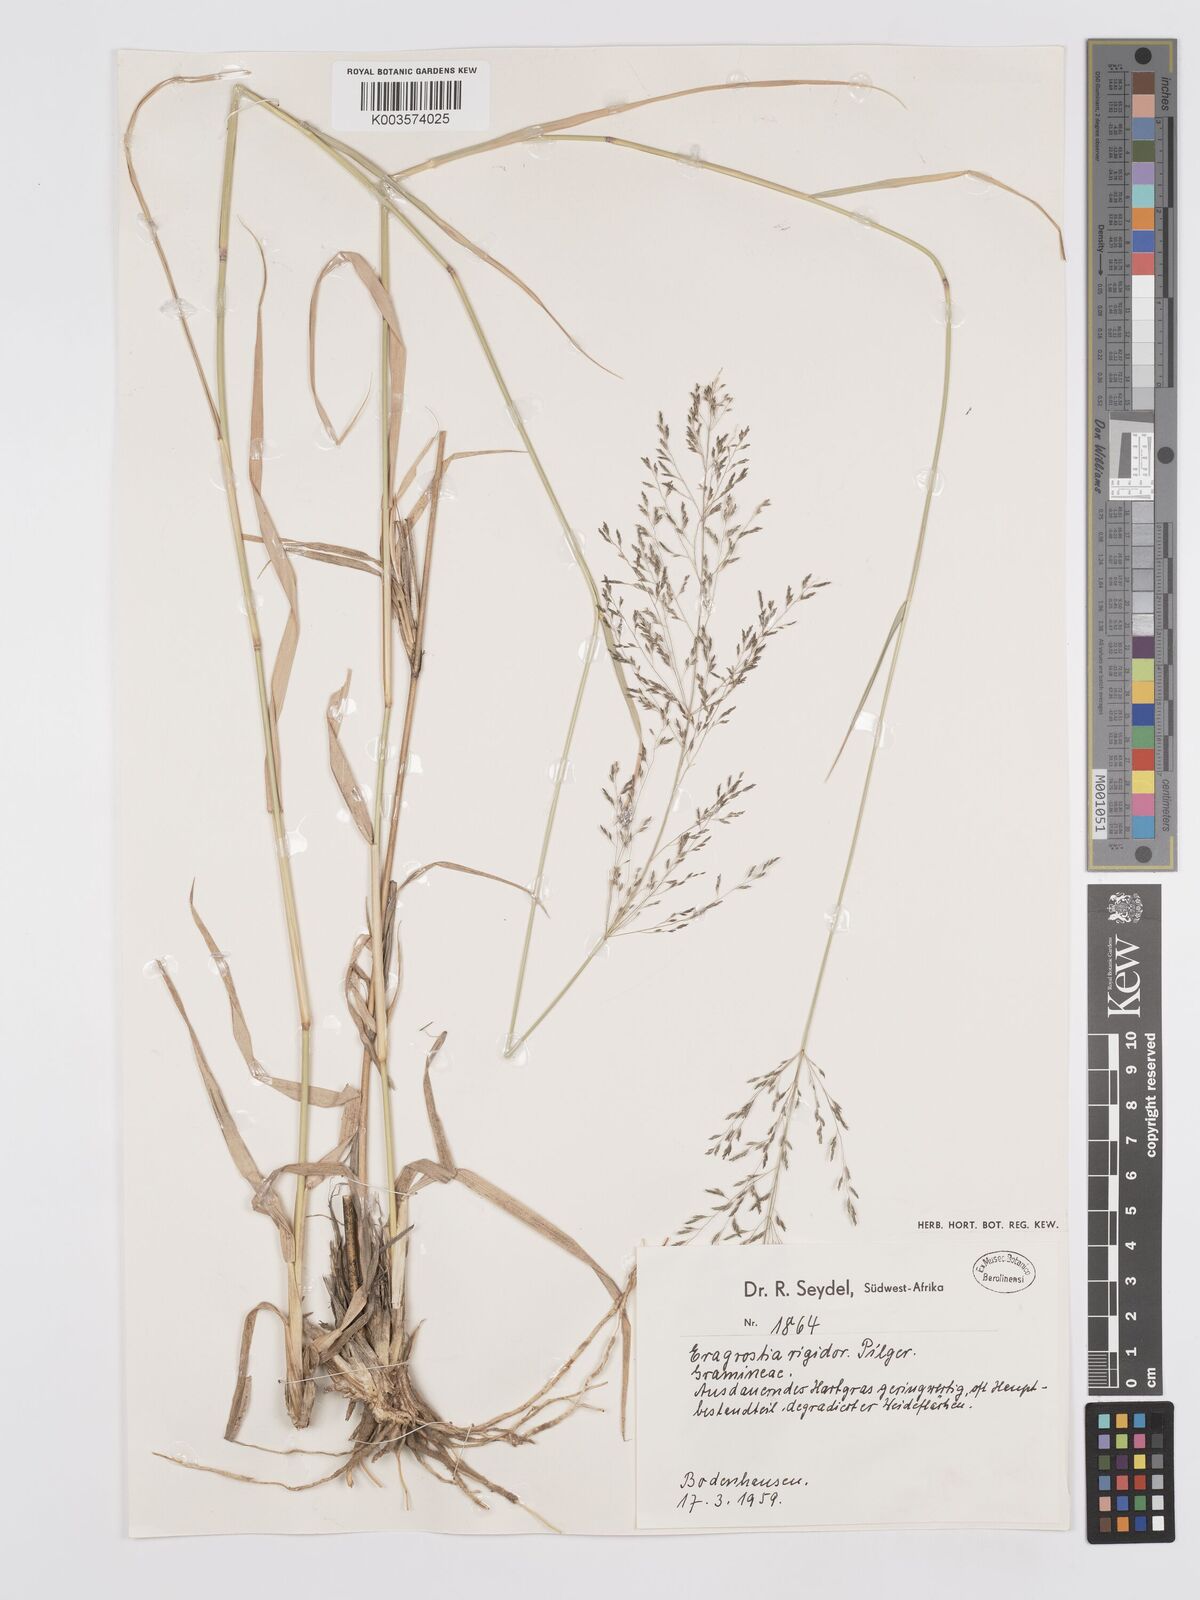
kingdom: Plantae
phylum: Tracheophyta
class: Liliopsida
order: Poales
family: Poaceae
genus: Eragrostis
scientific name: Eragrostis cylindriflora
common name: Cylinderflower lovegrass
